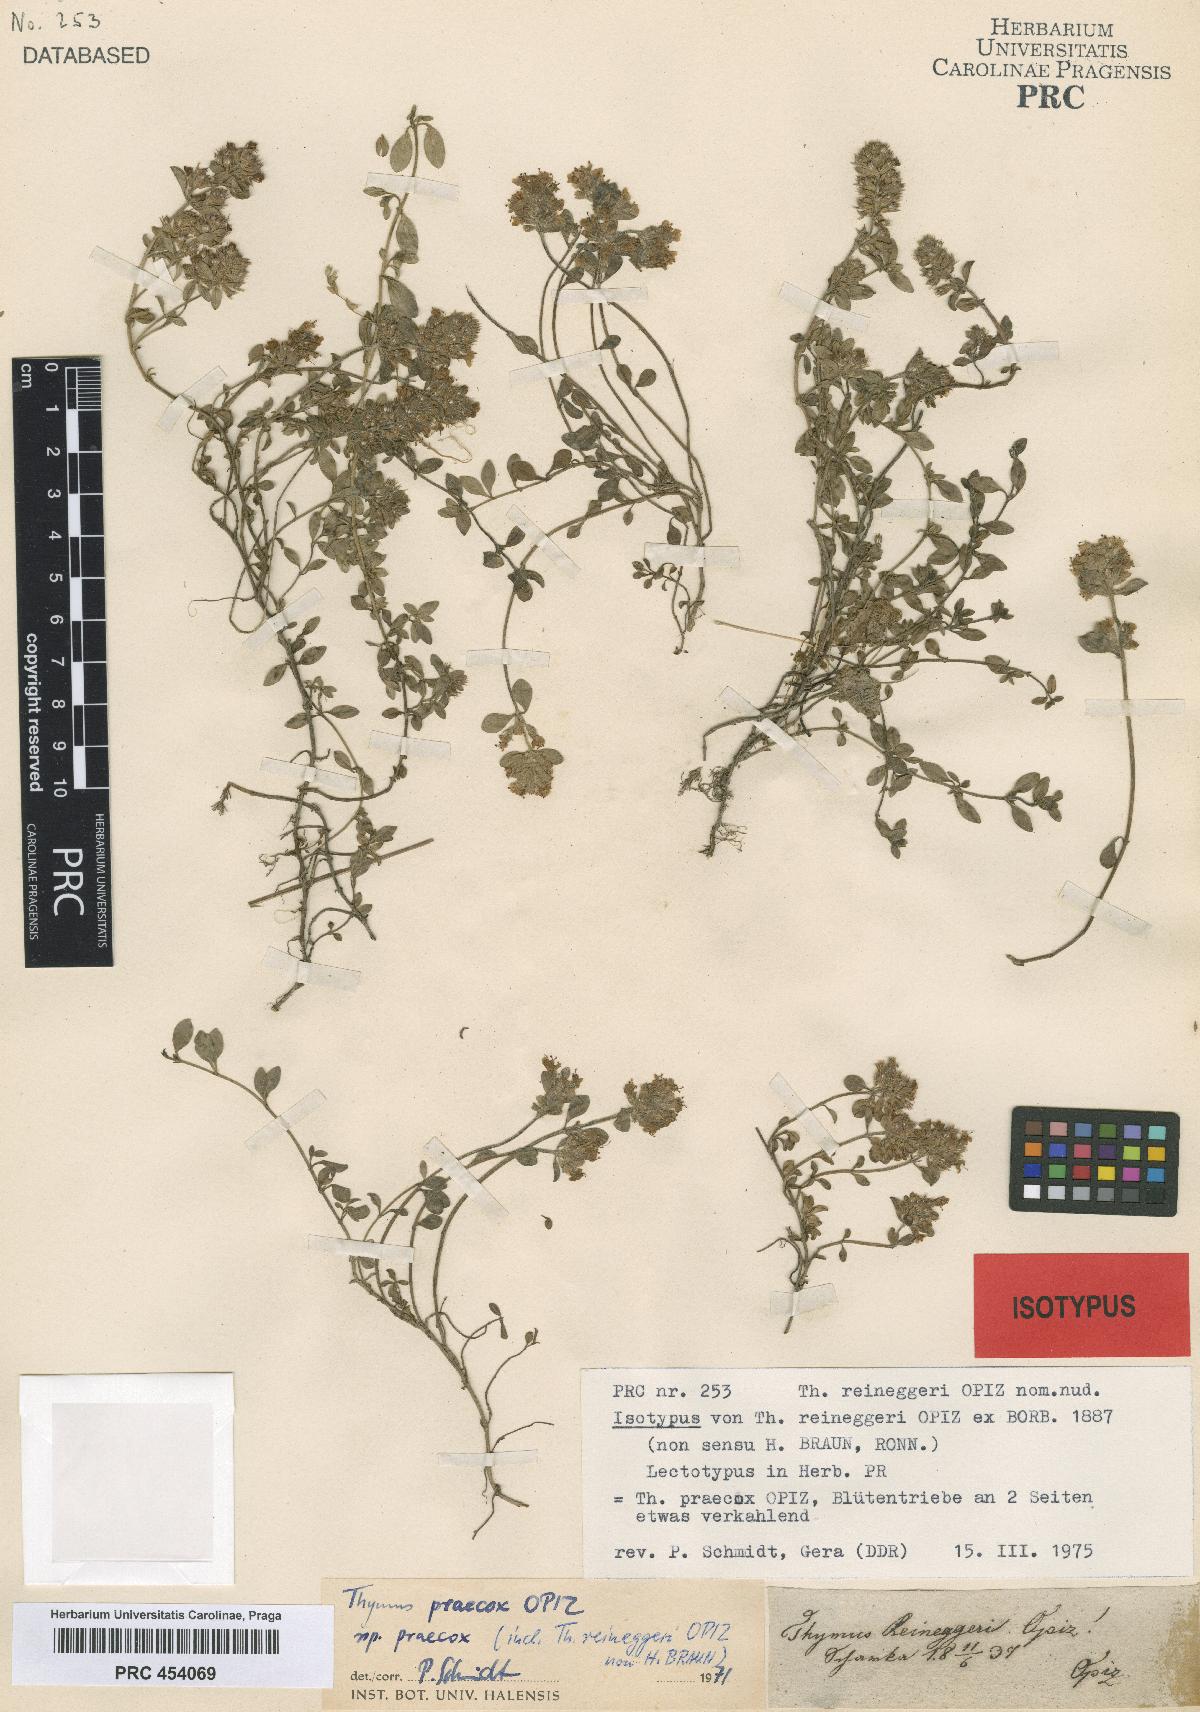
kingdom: Plantae
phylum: Tracheophyta
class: Magnoliopsida
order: Lamiales
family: Lamiaceae
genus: Thymus
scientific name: Thymus praecox
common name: Wild thyme
